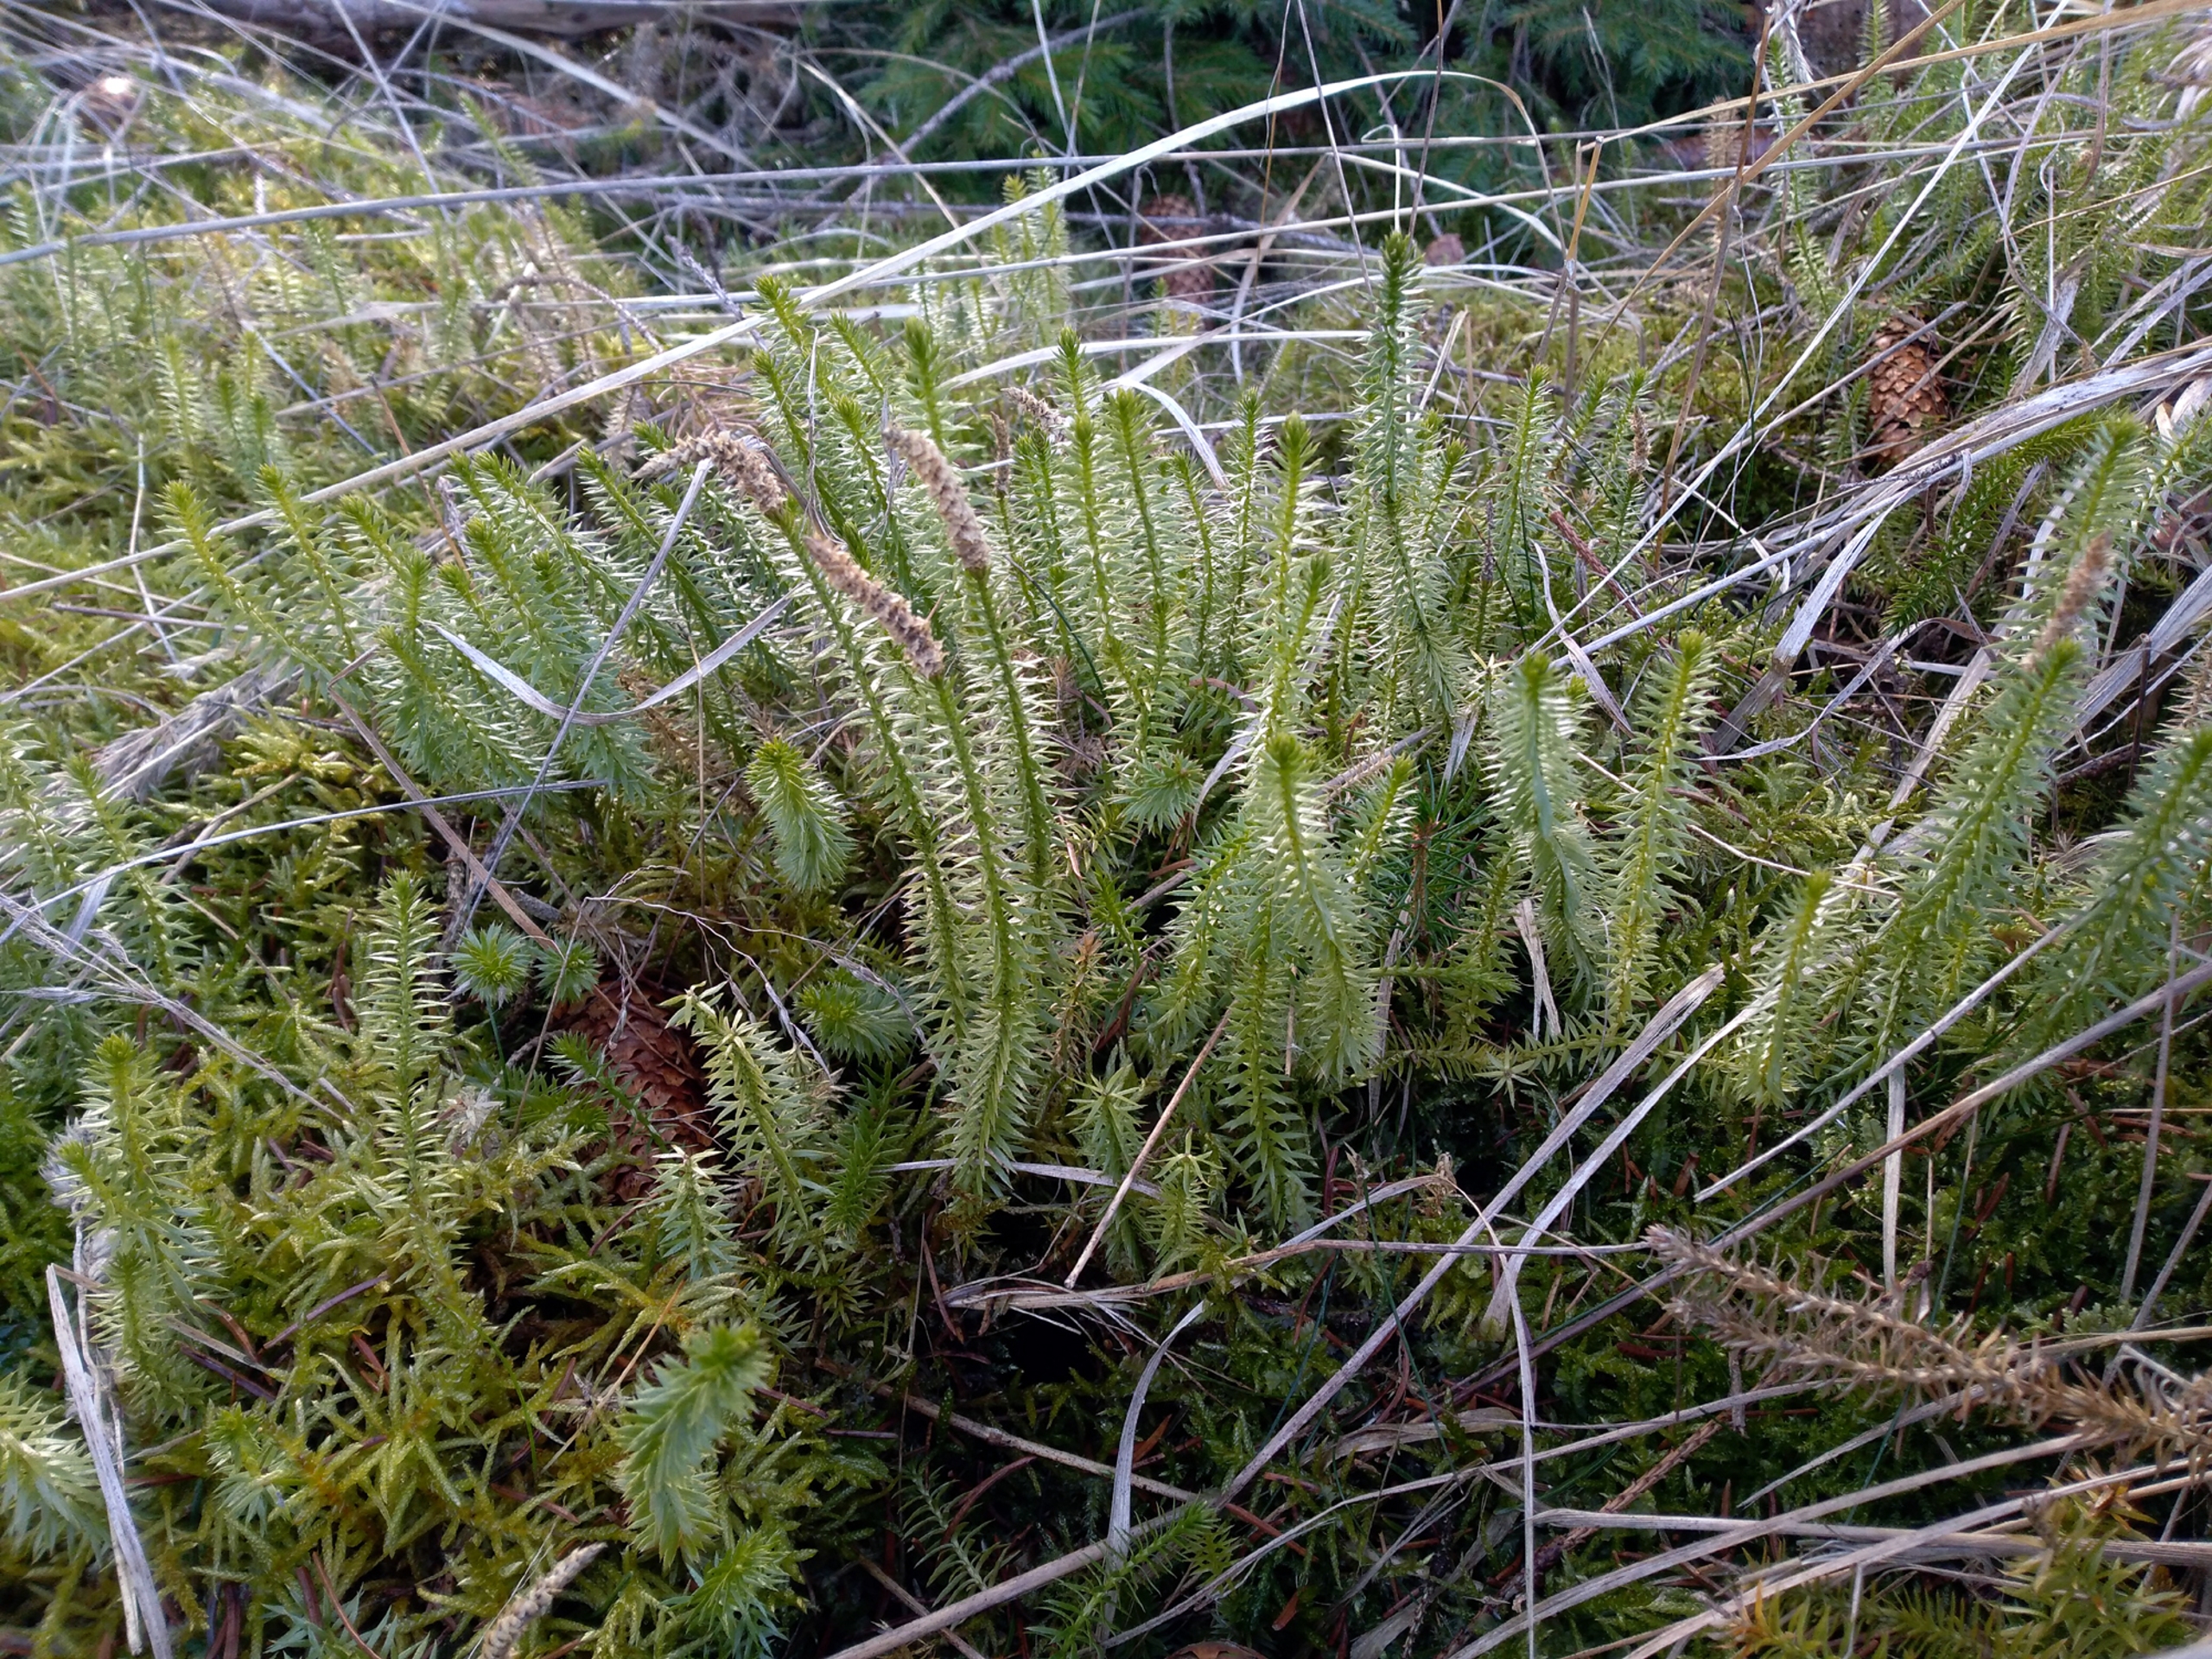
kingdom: Plantae
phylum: Tracheophyta
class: Lycopodiopsida
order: Lycopodiales
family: Lycopodiaceae
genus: Spinulum
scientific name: Spinulum annotinum
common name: Femradet ulvefod
